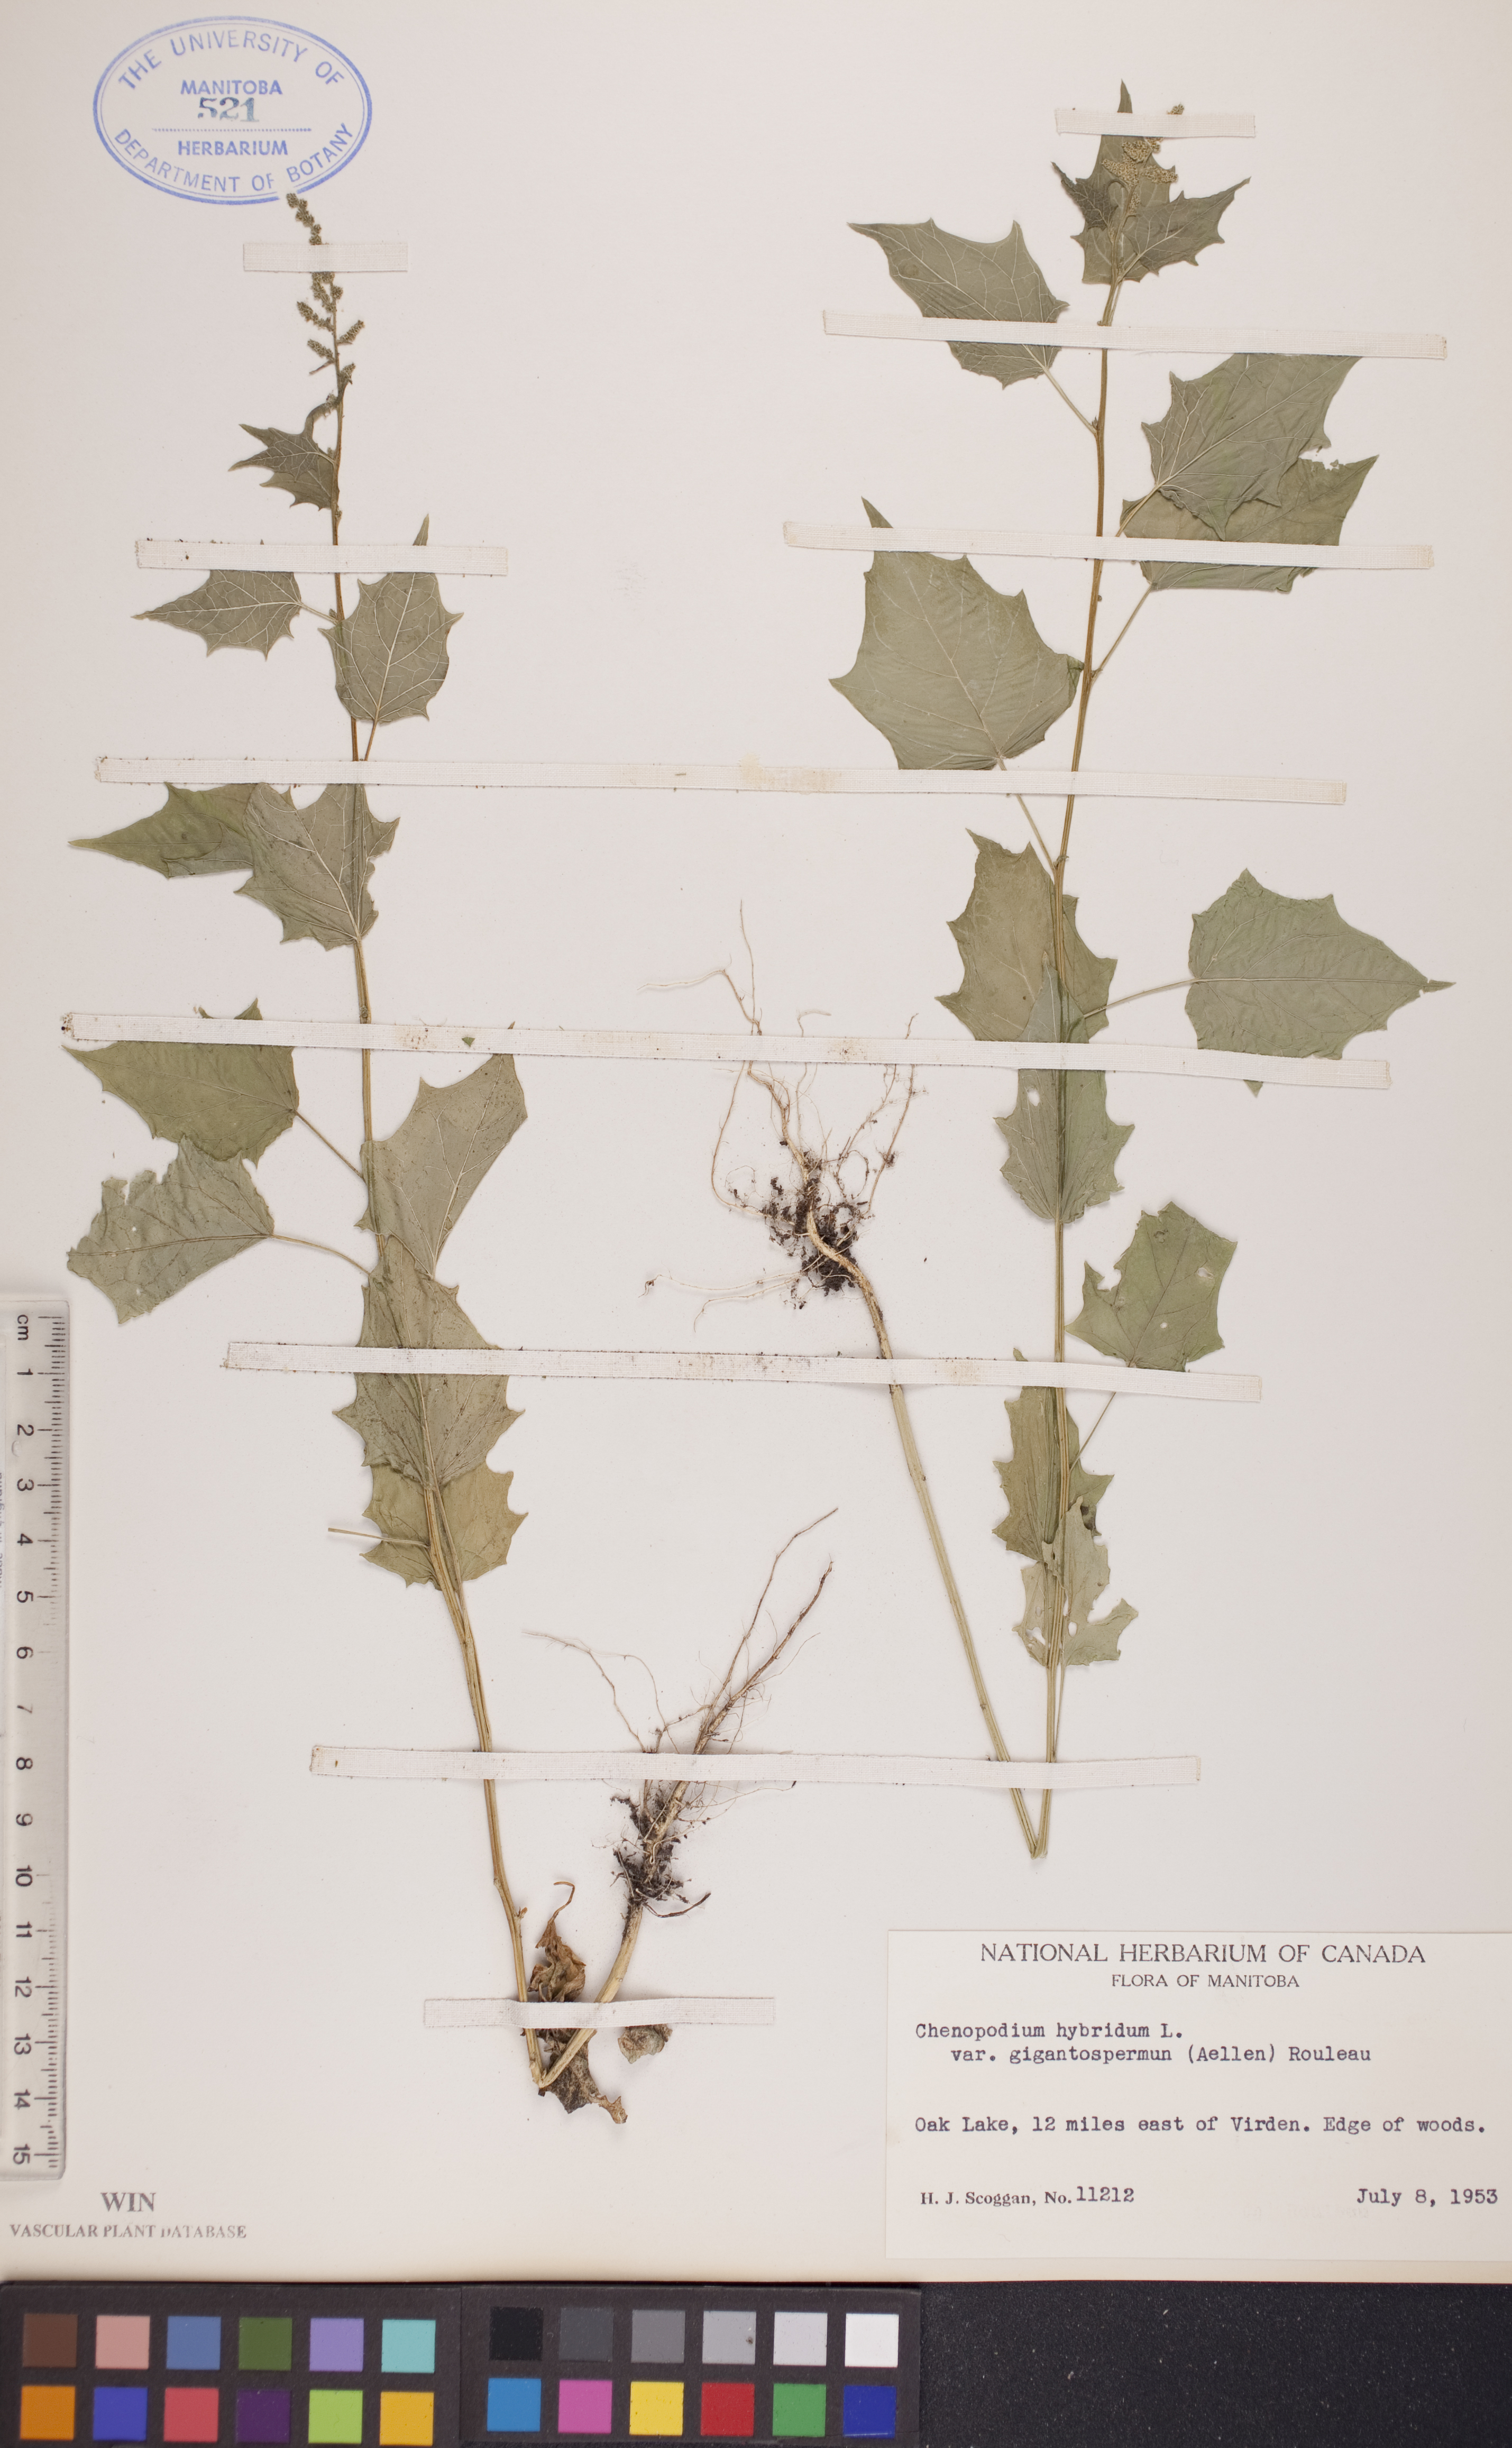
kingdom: Plantae
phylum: Tracheophyta
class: Magnoliopsida
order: Caryophyllales
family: Amaranthaceae
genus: Chenopodiastrum
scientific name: Chenopodiastrum simplex
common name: Large-seed goosefoot
